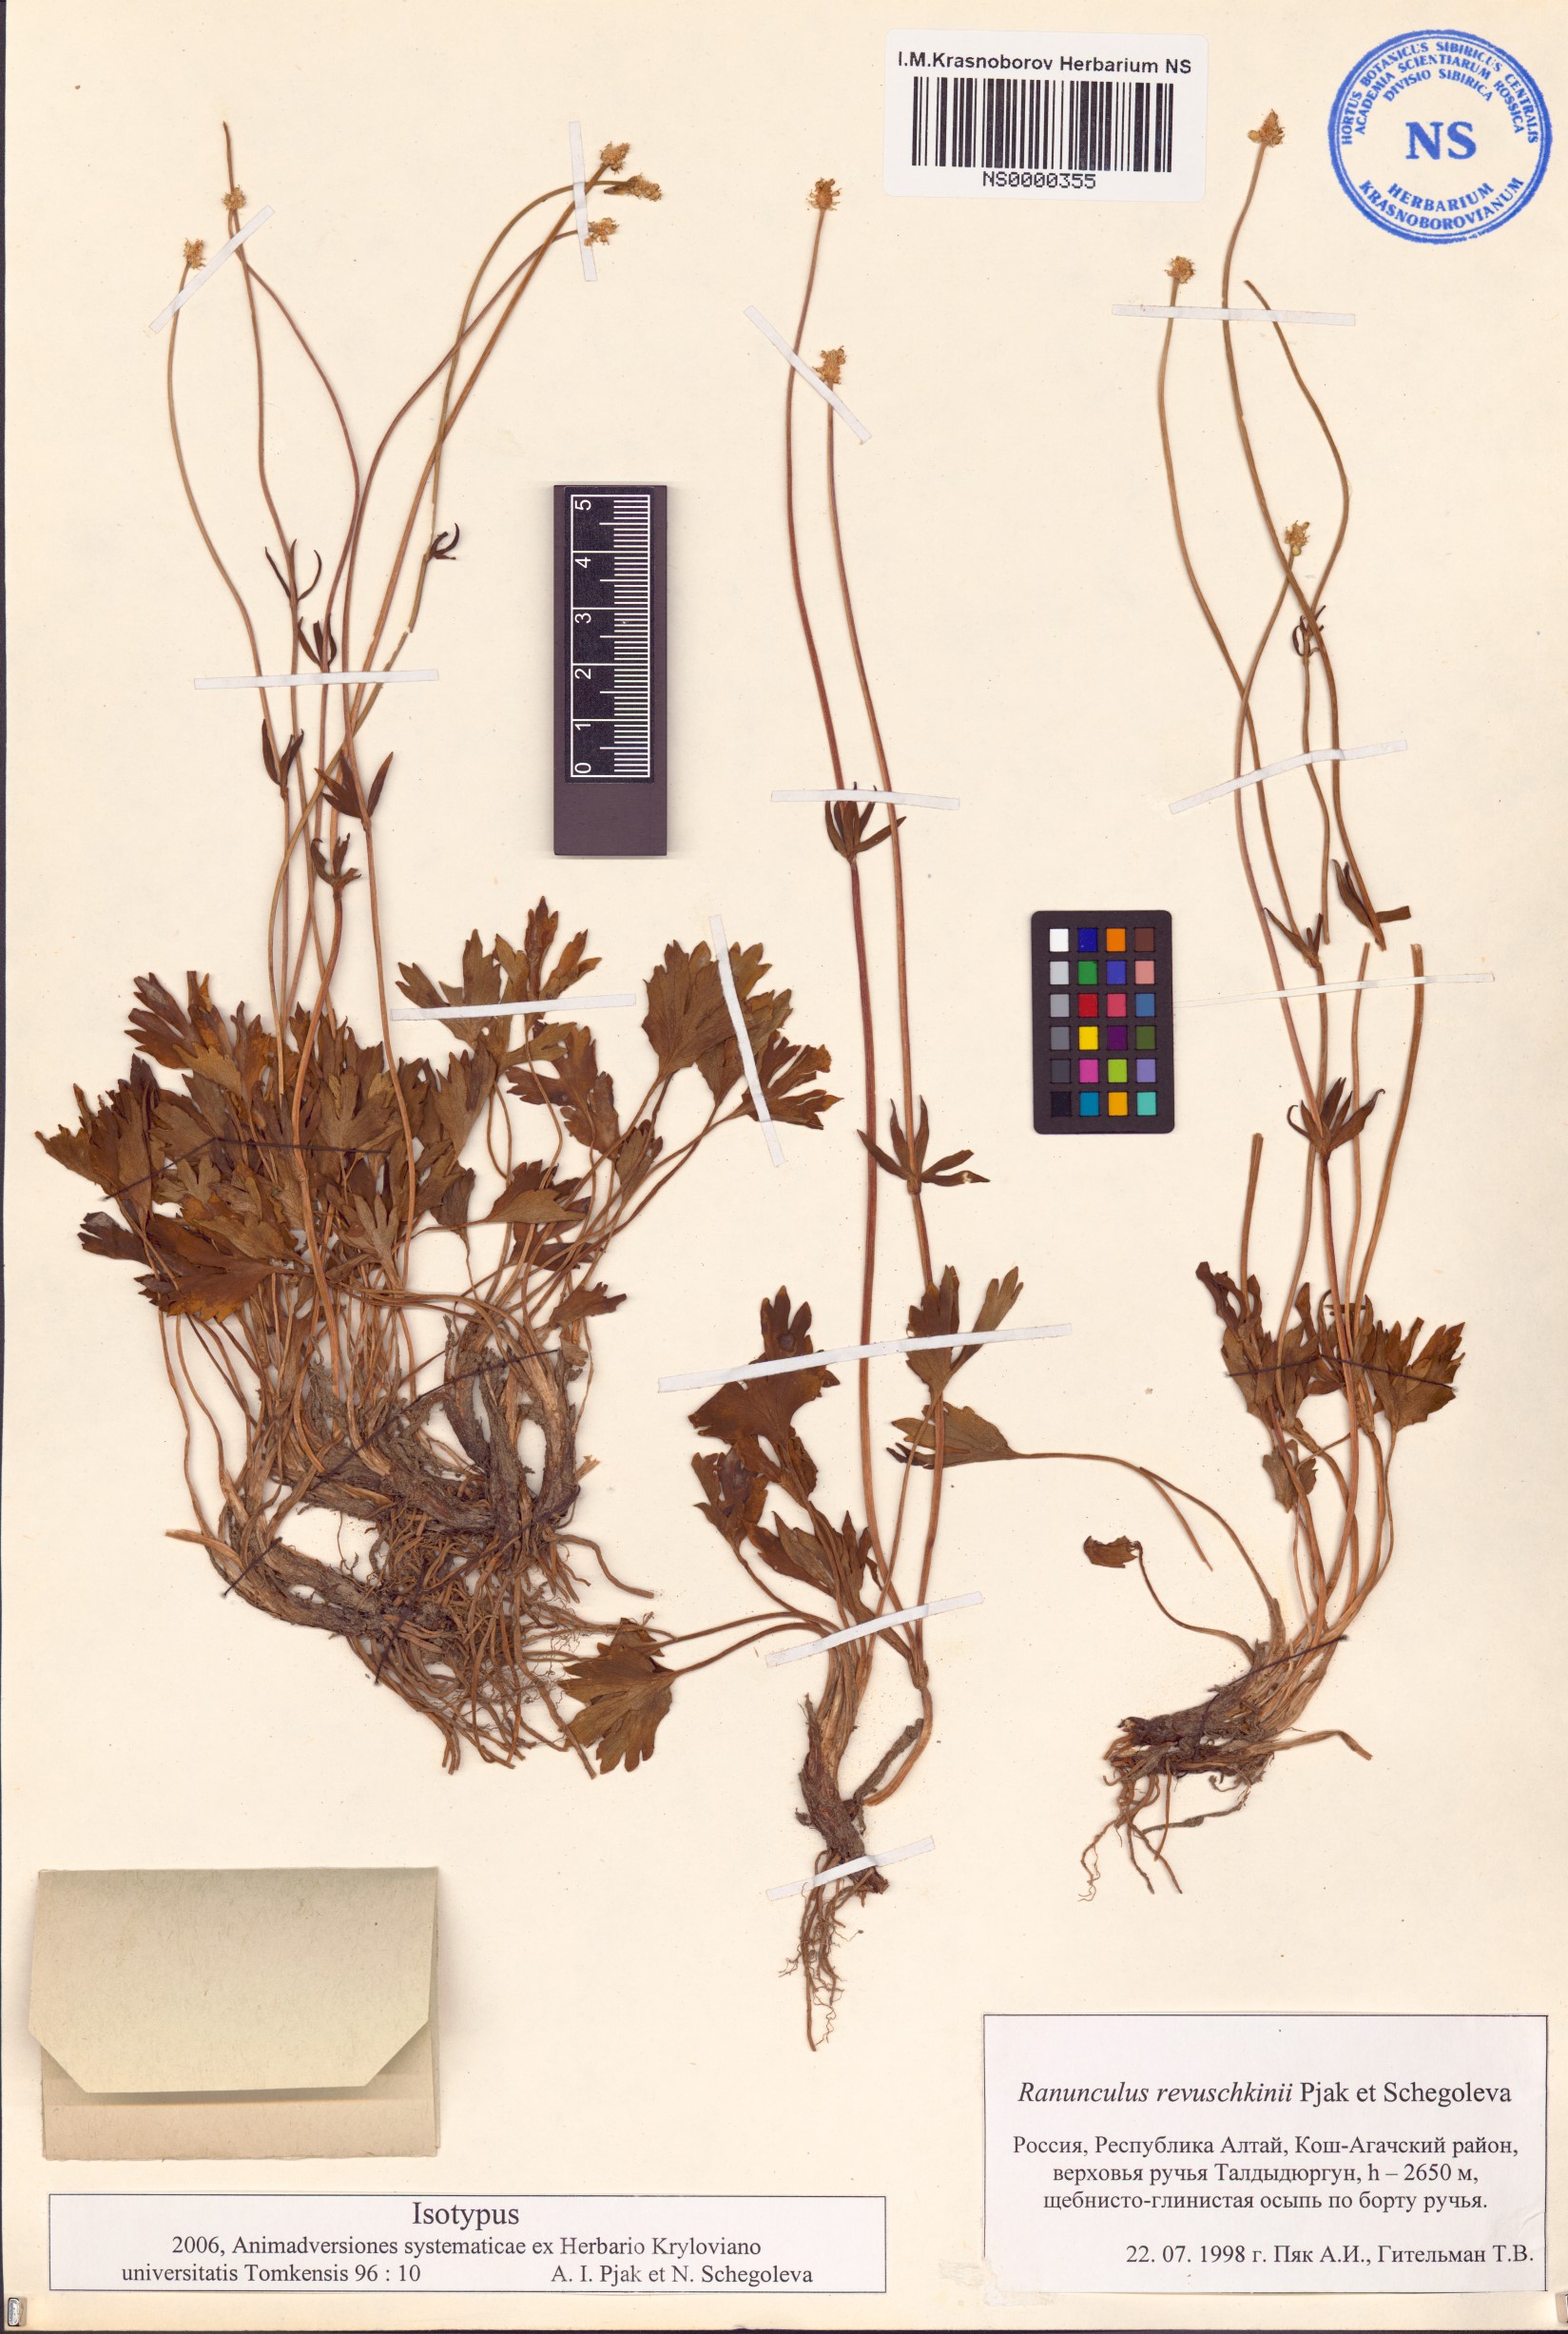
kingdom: Plantae
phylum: Tracheophyta
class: Magnoliopsida
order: Ranunculales
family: Ranunculaceae
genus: Ranunculus
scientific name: Ranunculus revuschkinii
